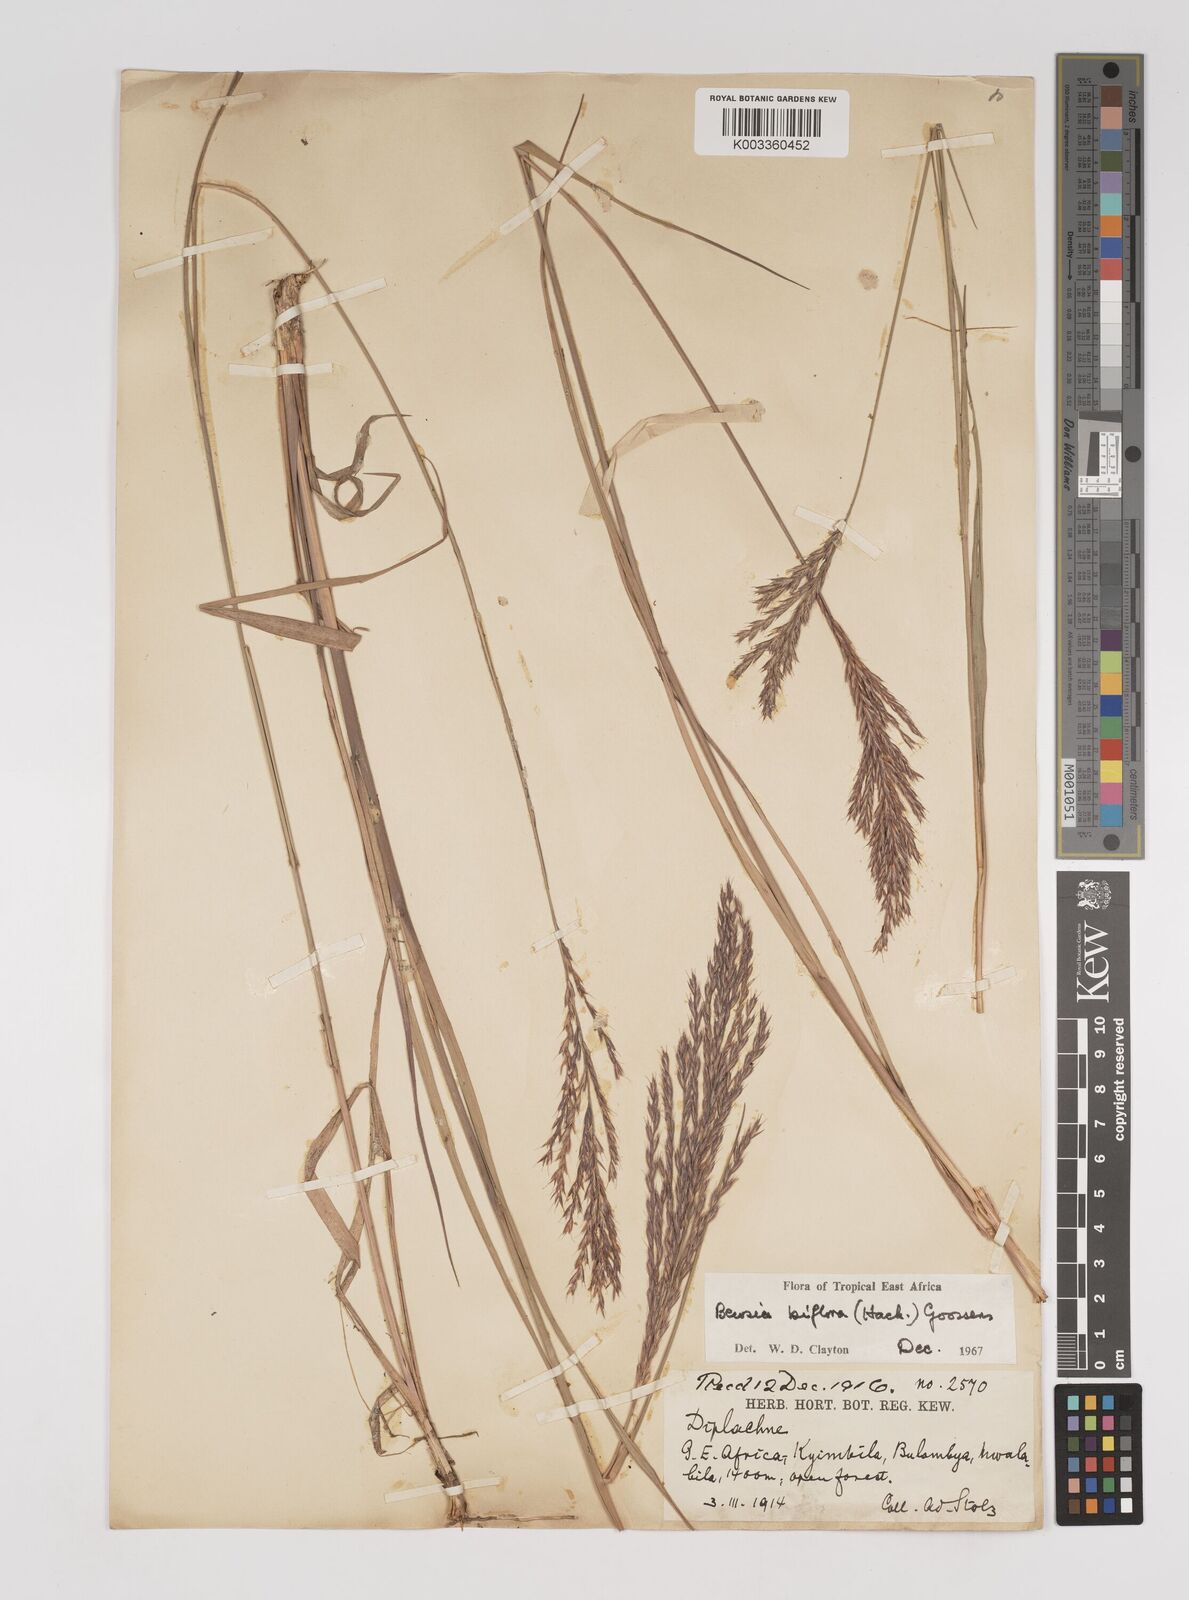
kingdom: Plantae
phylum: Tracheophyta
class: Liliopsida
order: Poales
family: Poaceae
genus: Bewsia
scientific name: Bewsia biflora
